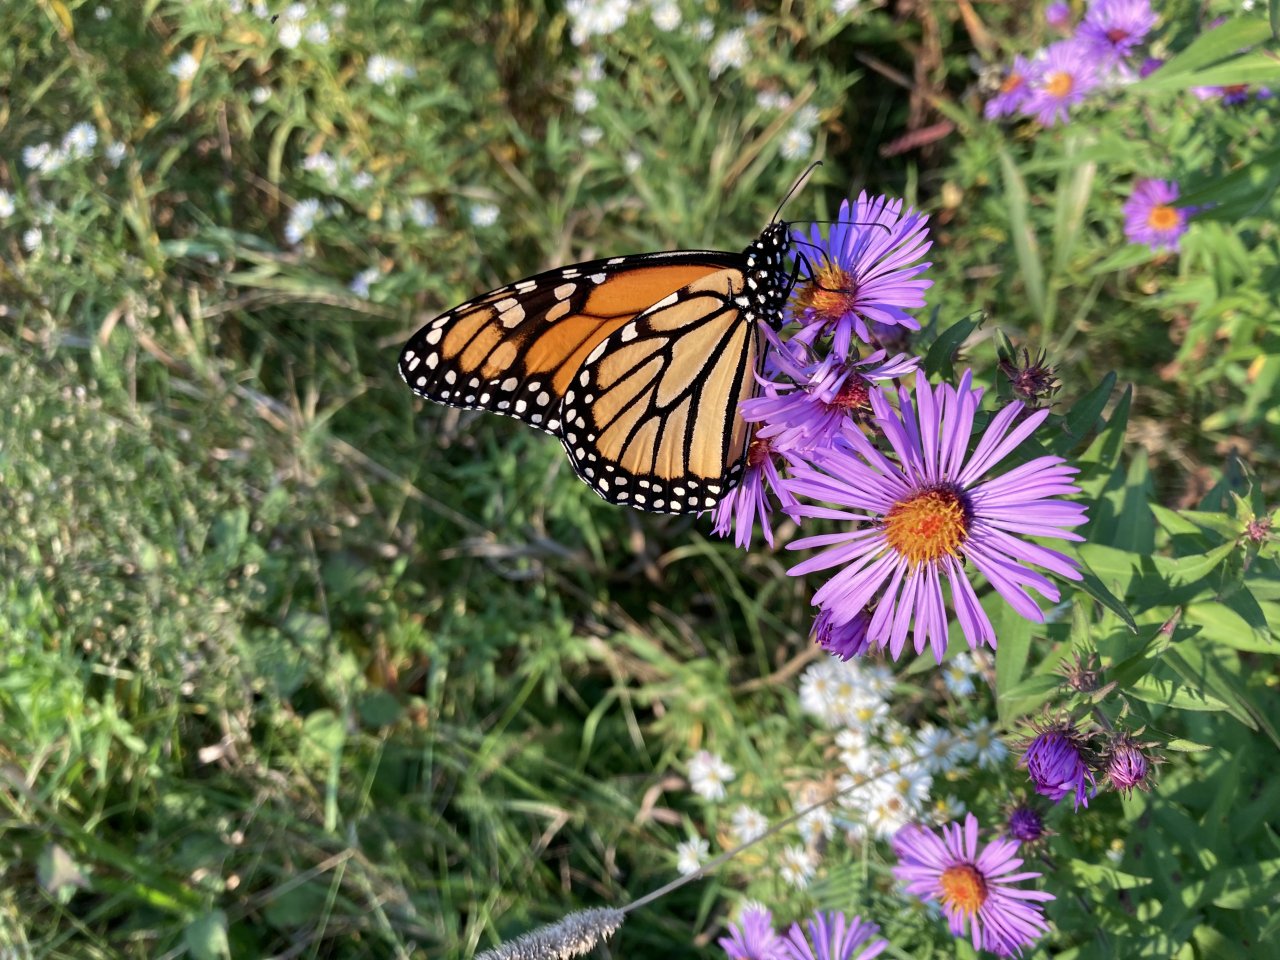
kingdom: Animalia
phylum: Arthropoda
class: Insecta
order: Lepidoptera
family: Nymphalidae
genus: Danaus
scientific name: Danaus plexippus
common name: Monarch
